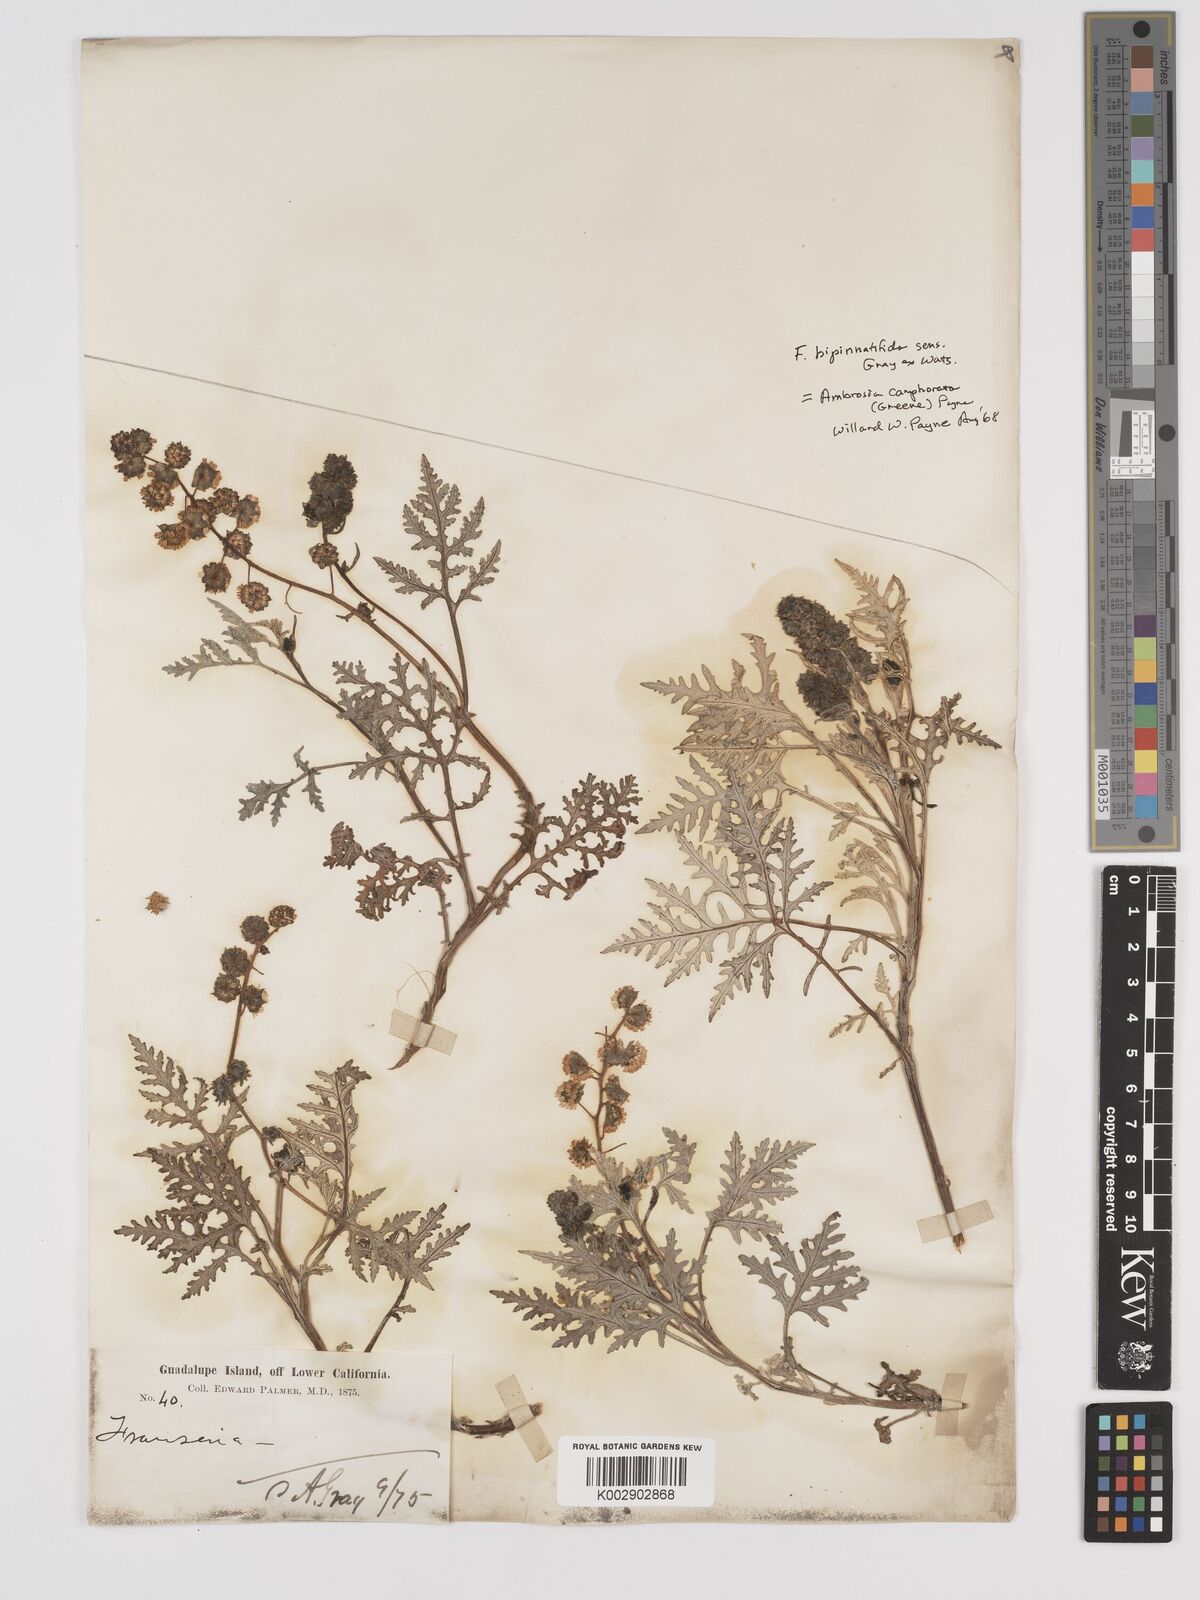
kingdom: Plantae
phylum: Tracheophyta
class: Magnoliopsida
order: Asterales
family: Asteraceae
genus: Ambrosia
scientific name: Ambrosia chamissonis
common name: Beachbur
